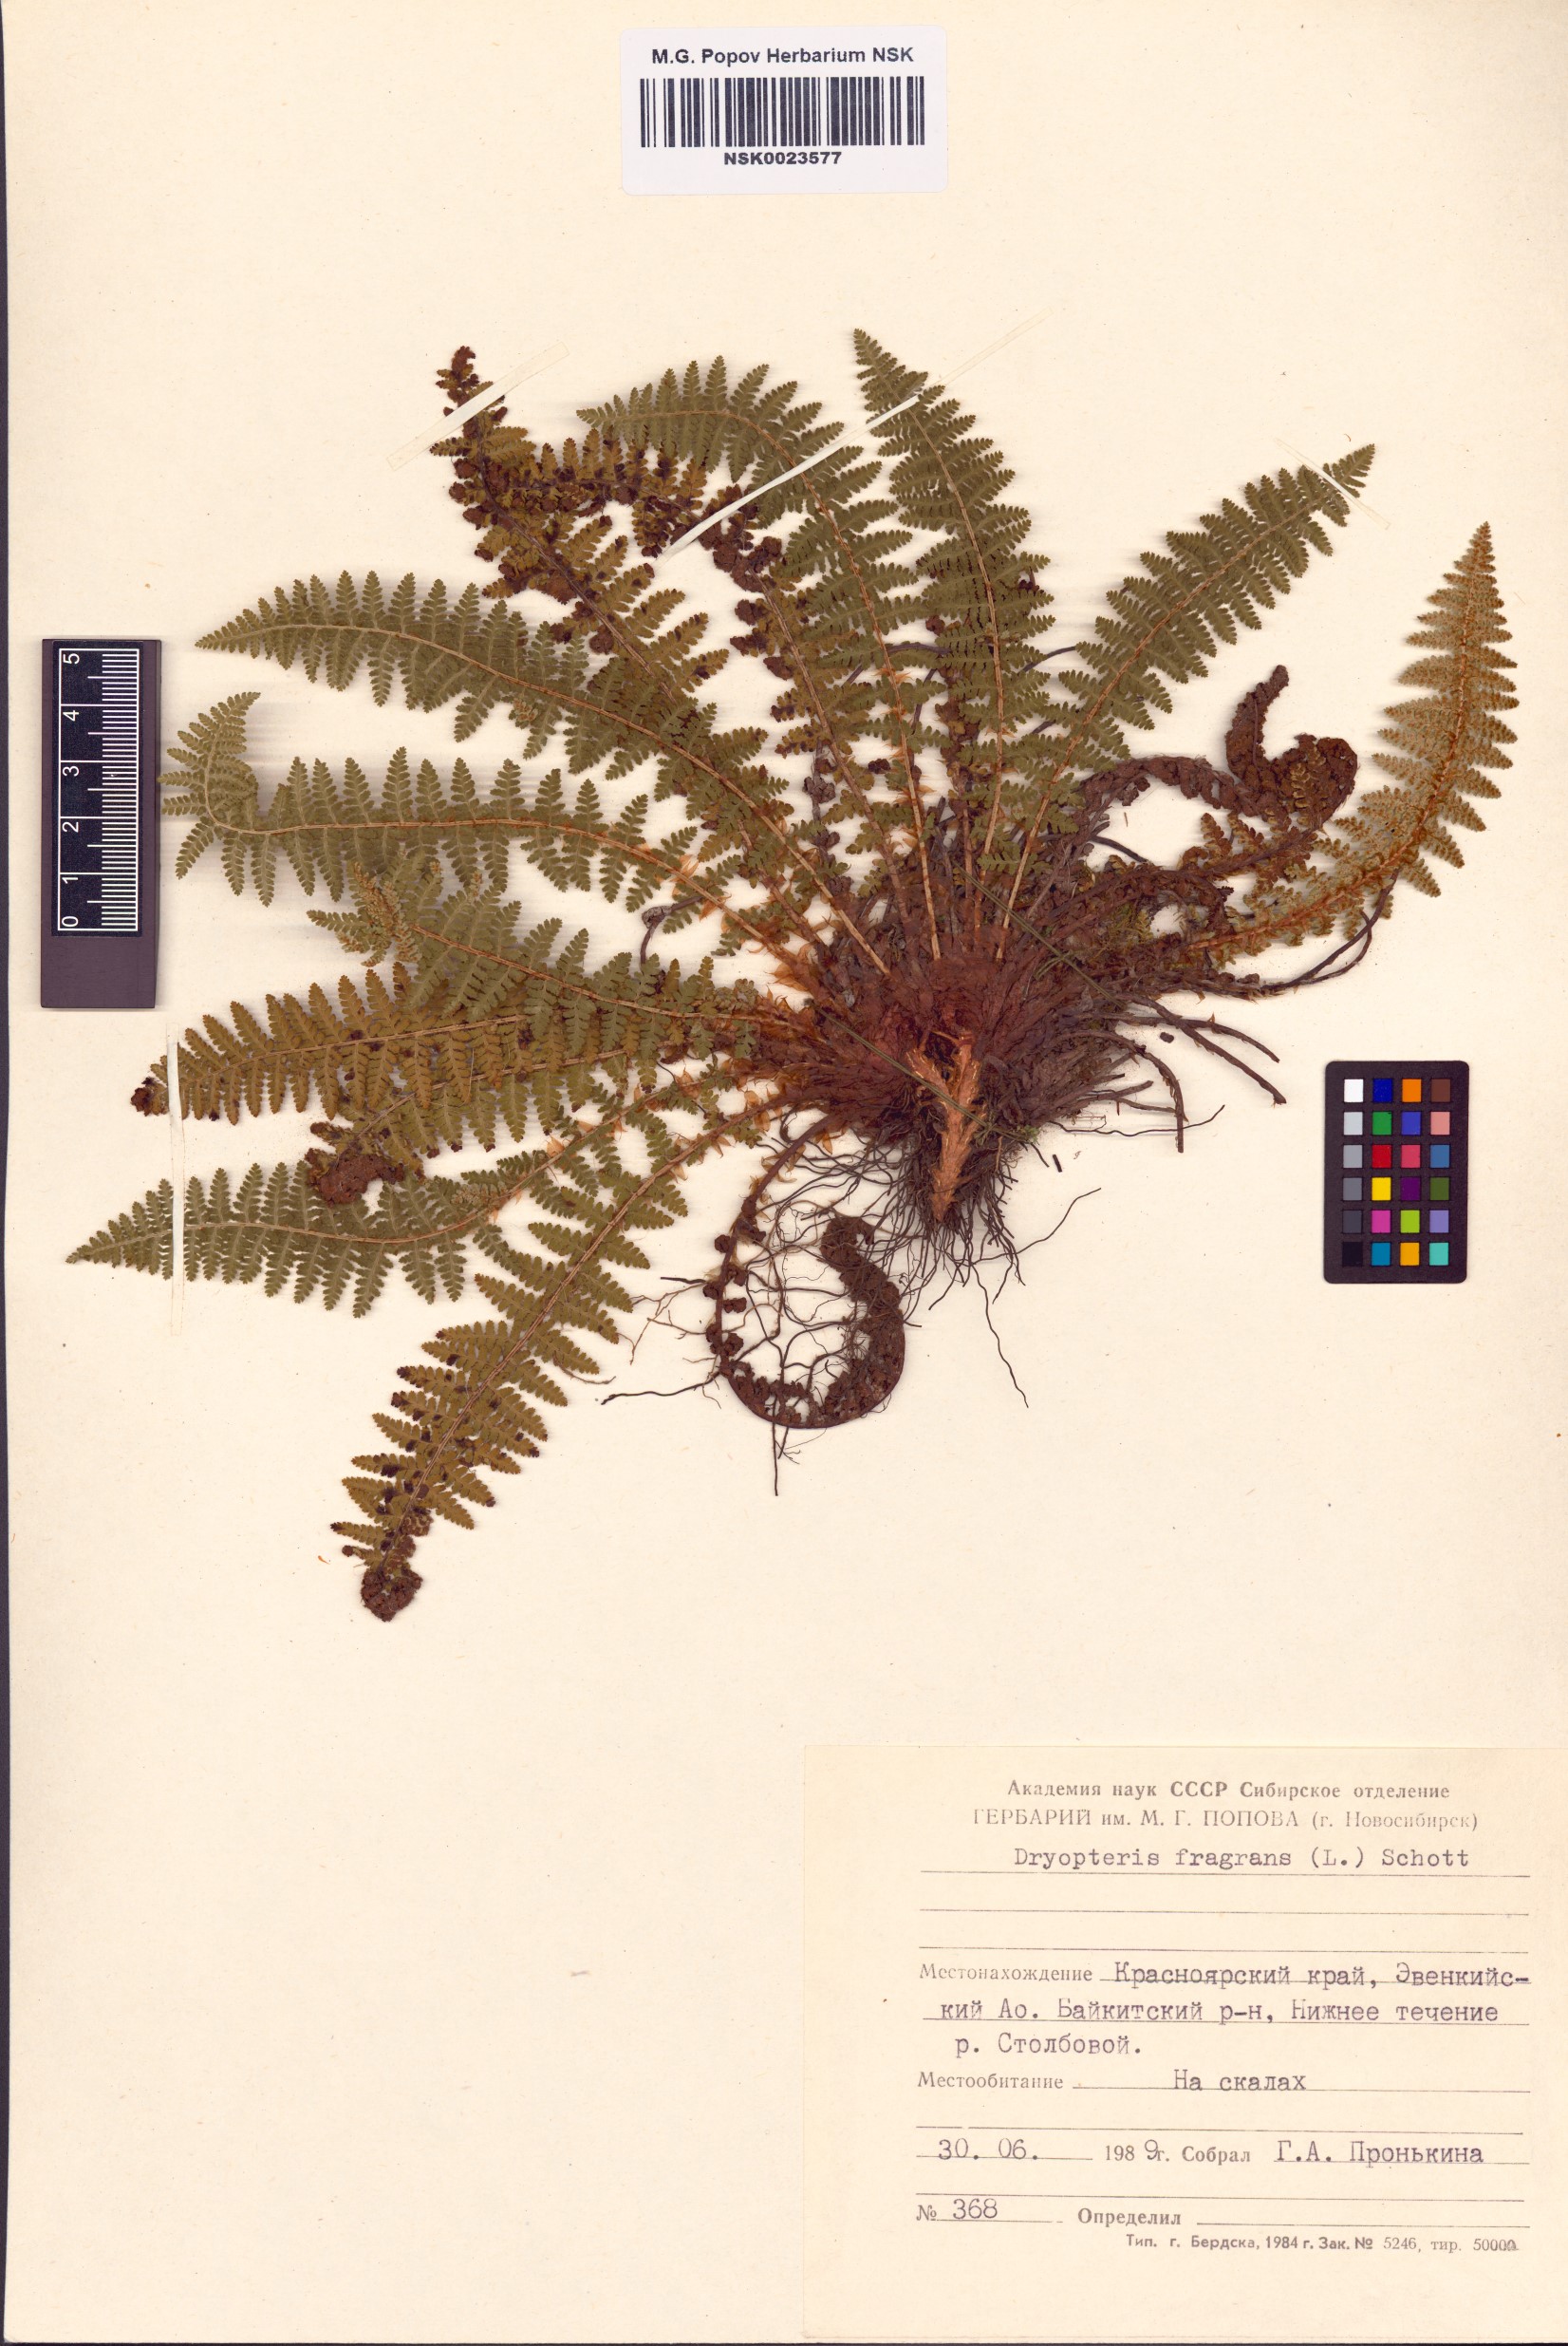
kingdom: Plantae
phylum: Tracheophyta
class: Polypodiopsida
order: Polypodiales
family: Dryopteridaceae
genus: Dryopteris
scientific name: Dryopteris fragrans
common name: Fragrant wood fern
